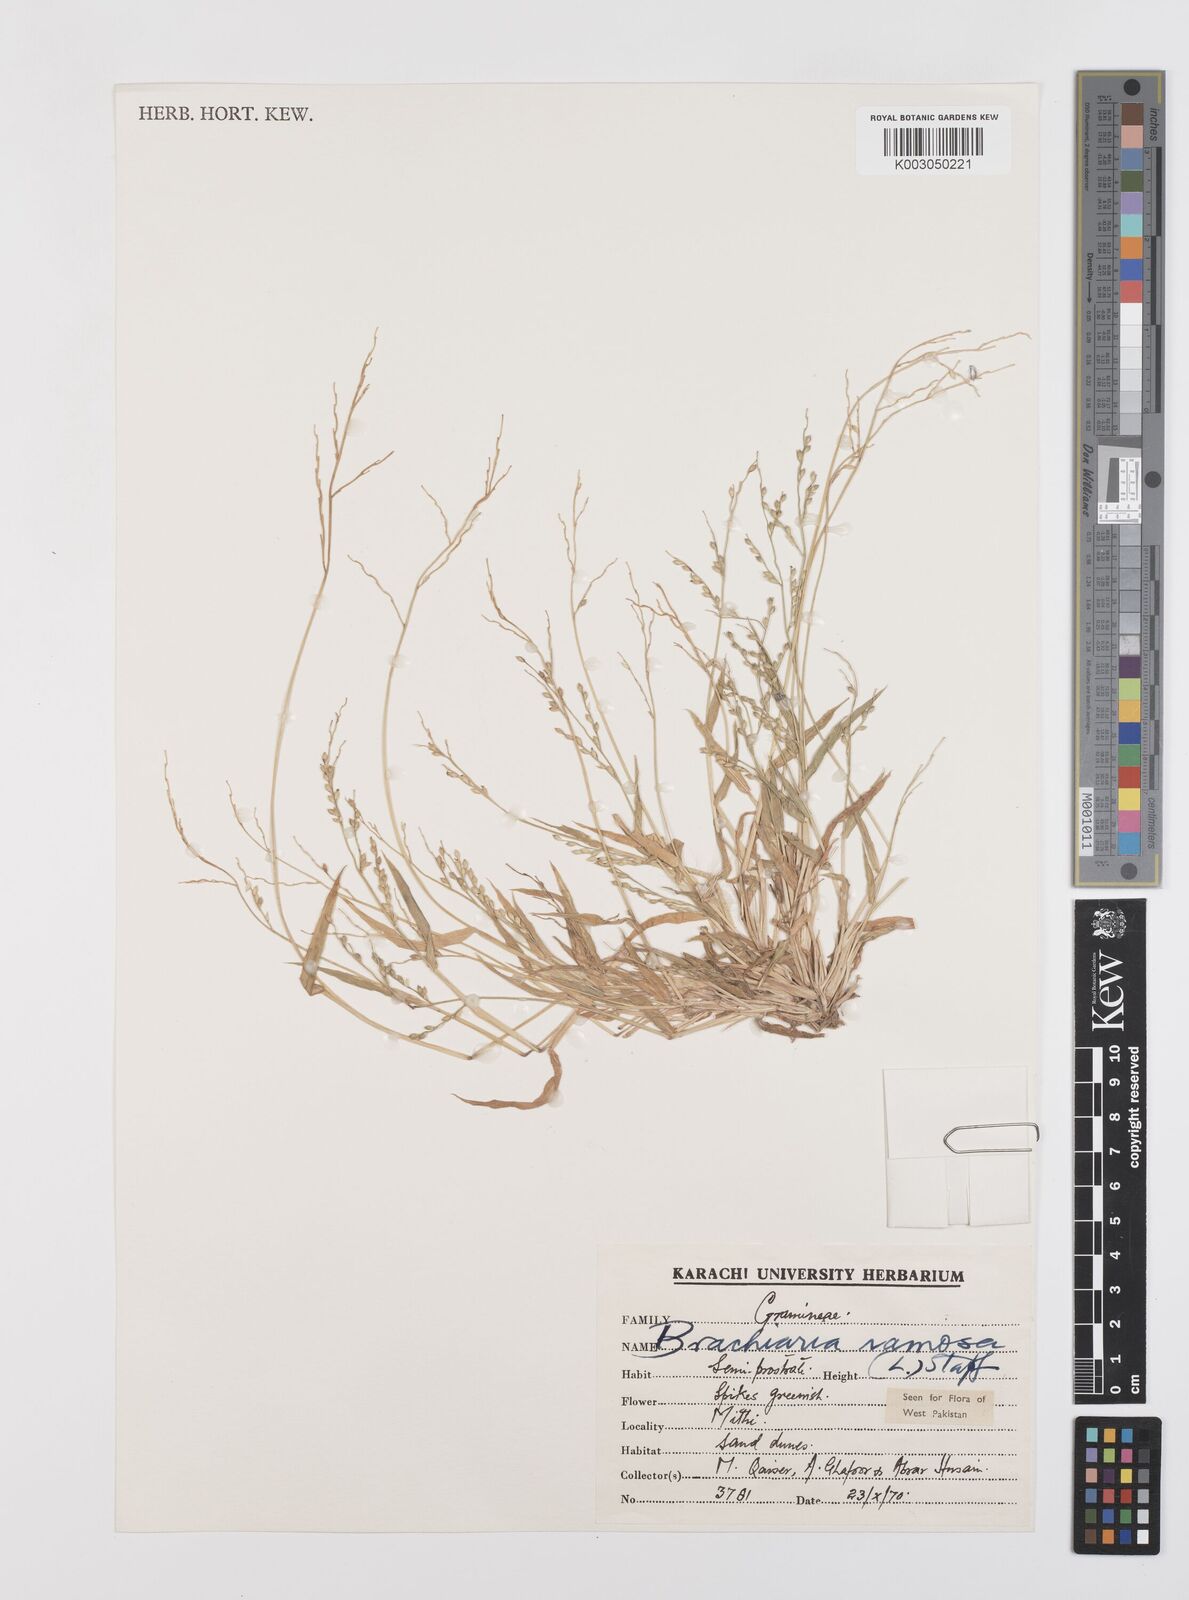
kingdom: Plantae
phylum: Tracheophyta
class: Liliopsida
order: Poales
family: Poaceae
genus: Urochloa
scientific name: Urochloa ramosa
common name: Browntop millet
